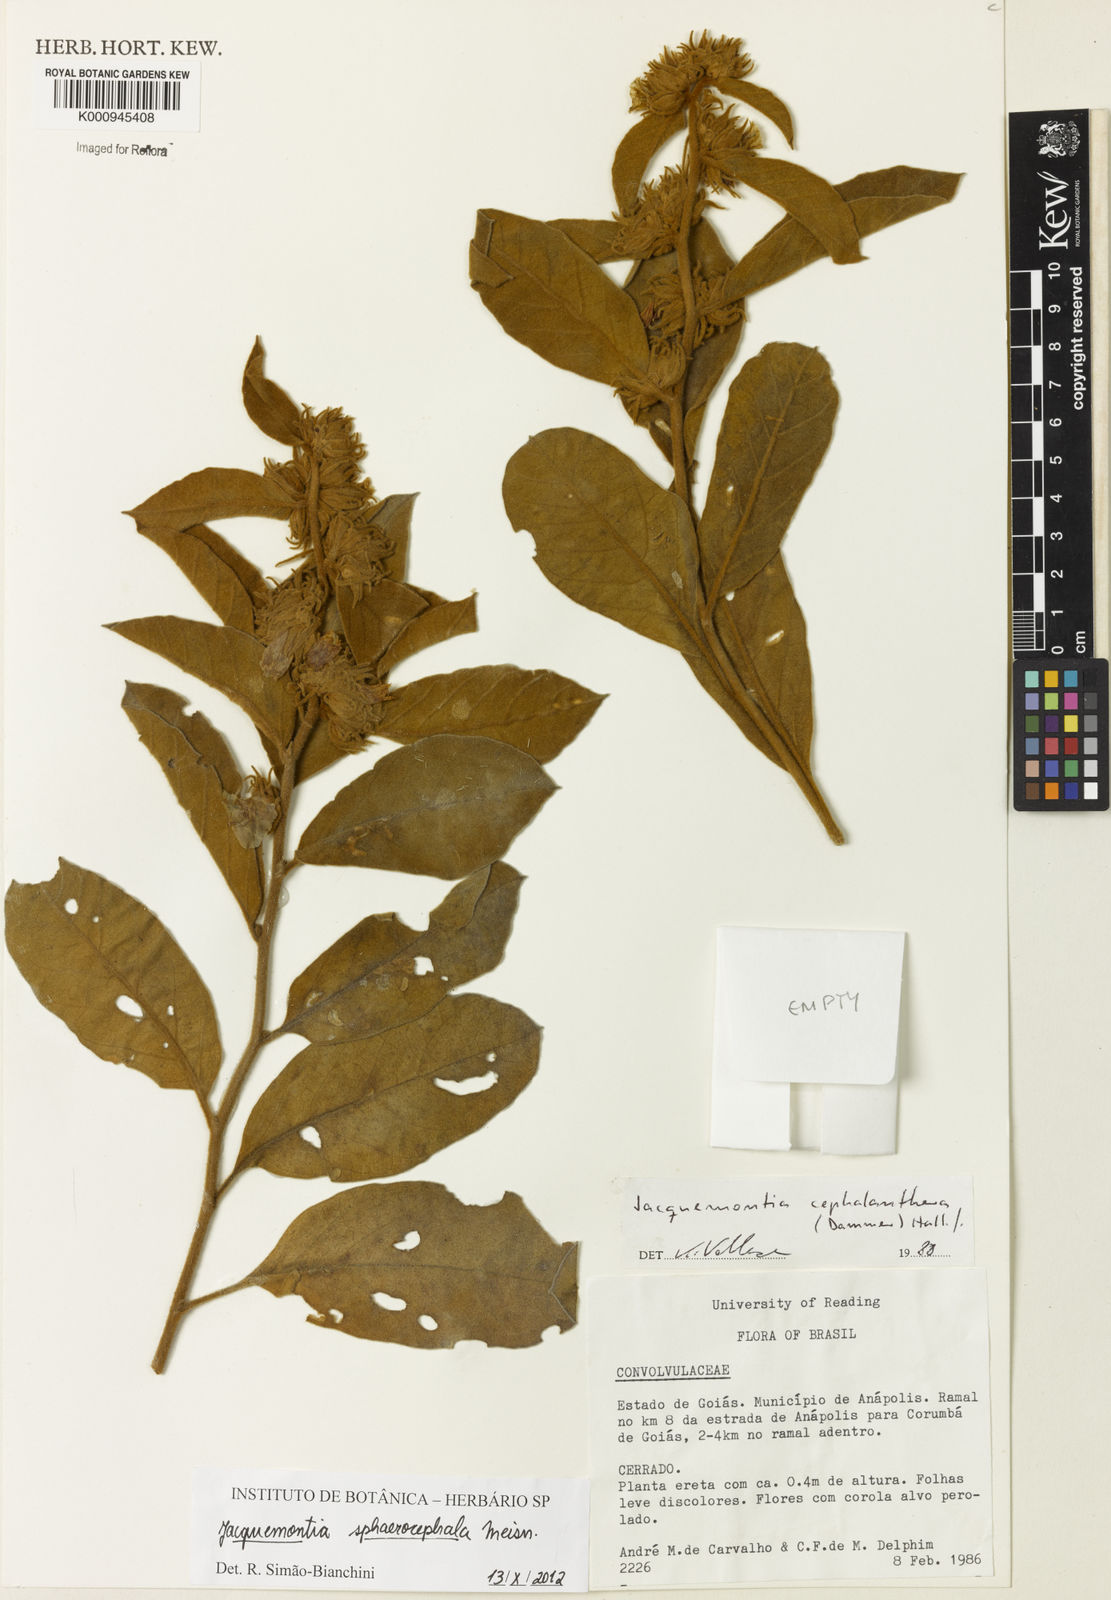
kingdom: Plantae
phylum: Tracheophyta
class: Magnoliopsida
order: Solanales
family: Convolvulaceae
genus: Jacquemontia
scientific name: Jacquemontia sphaerocephala
